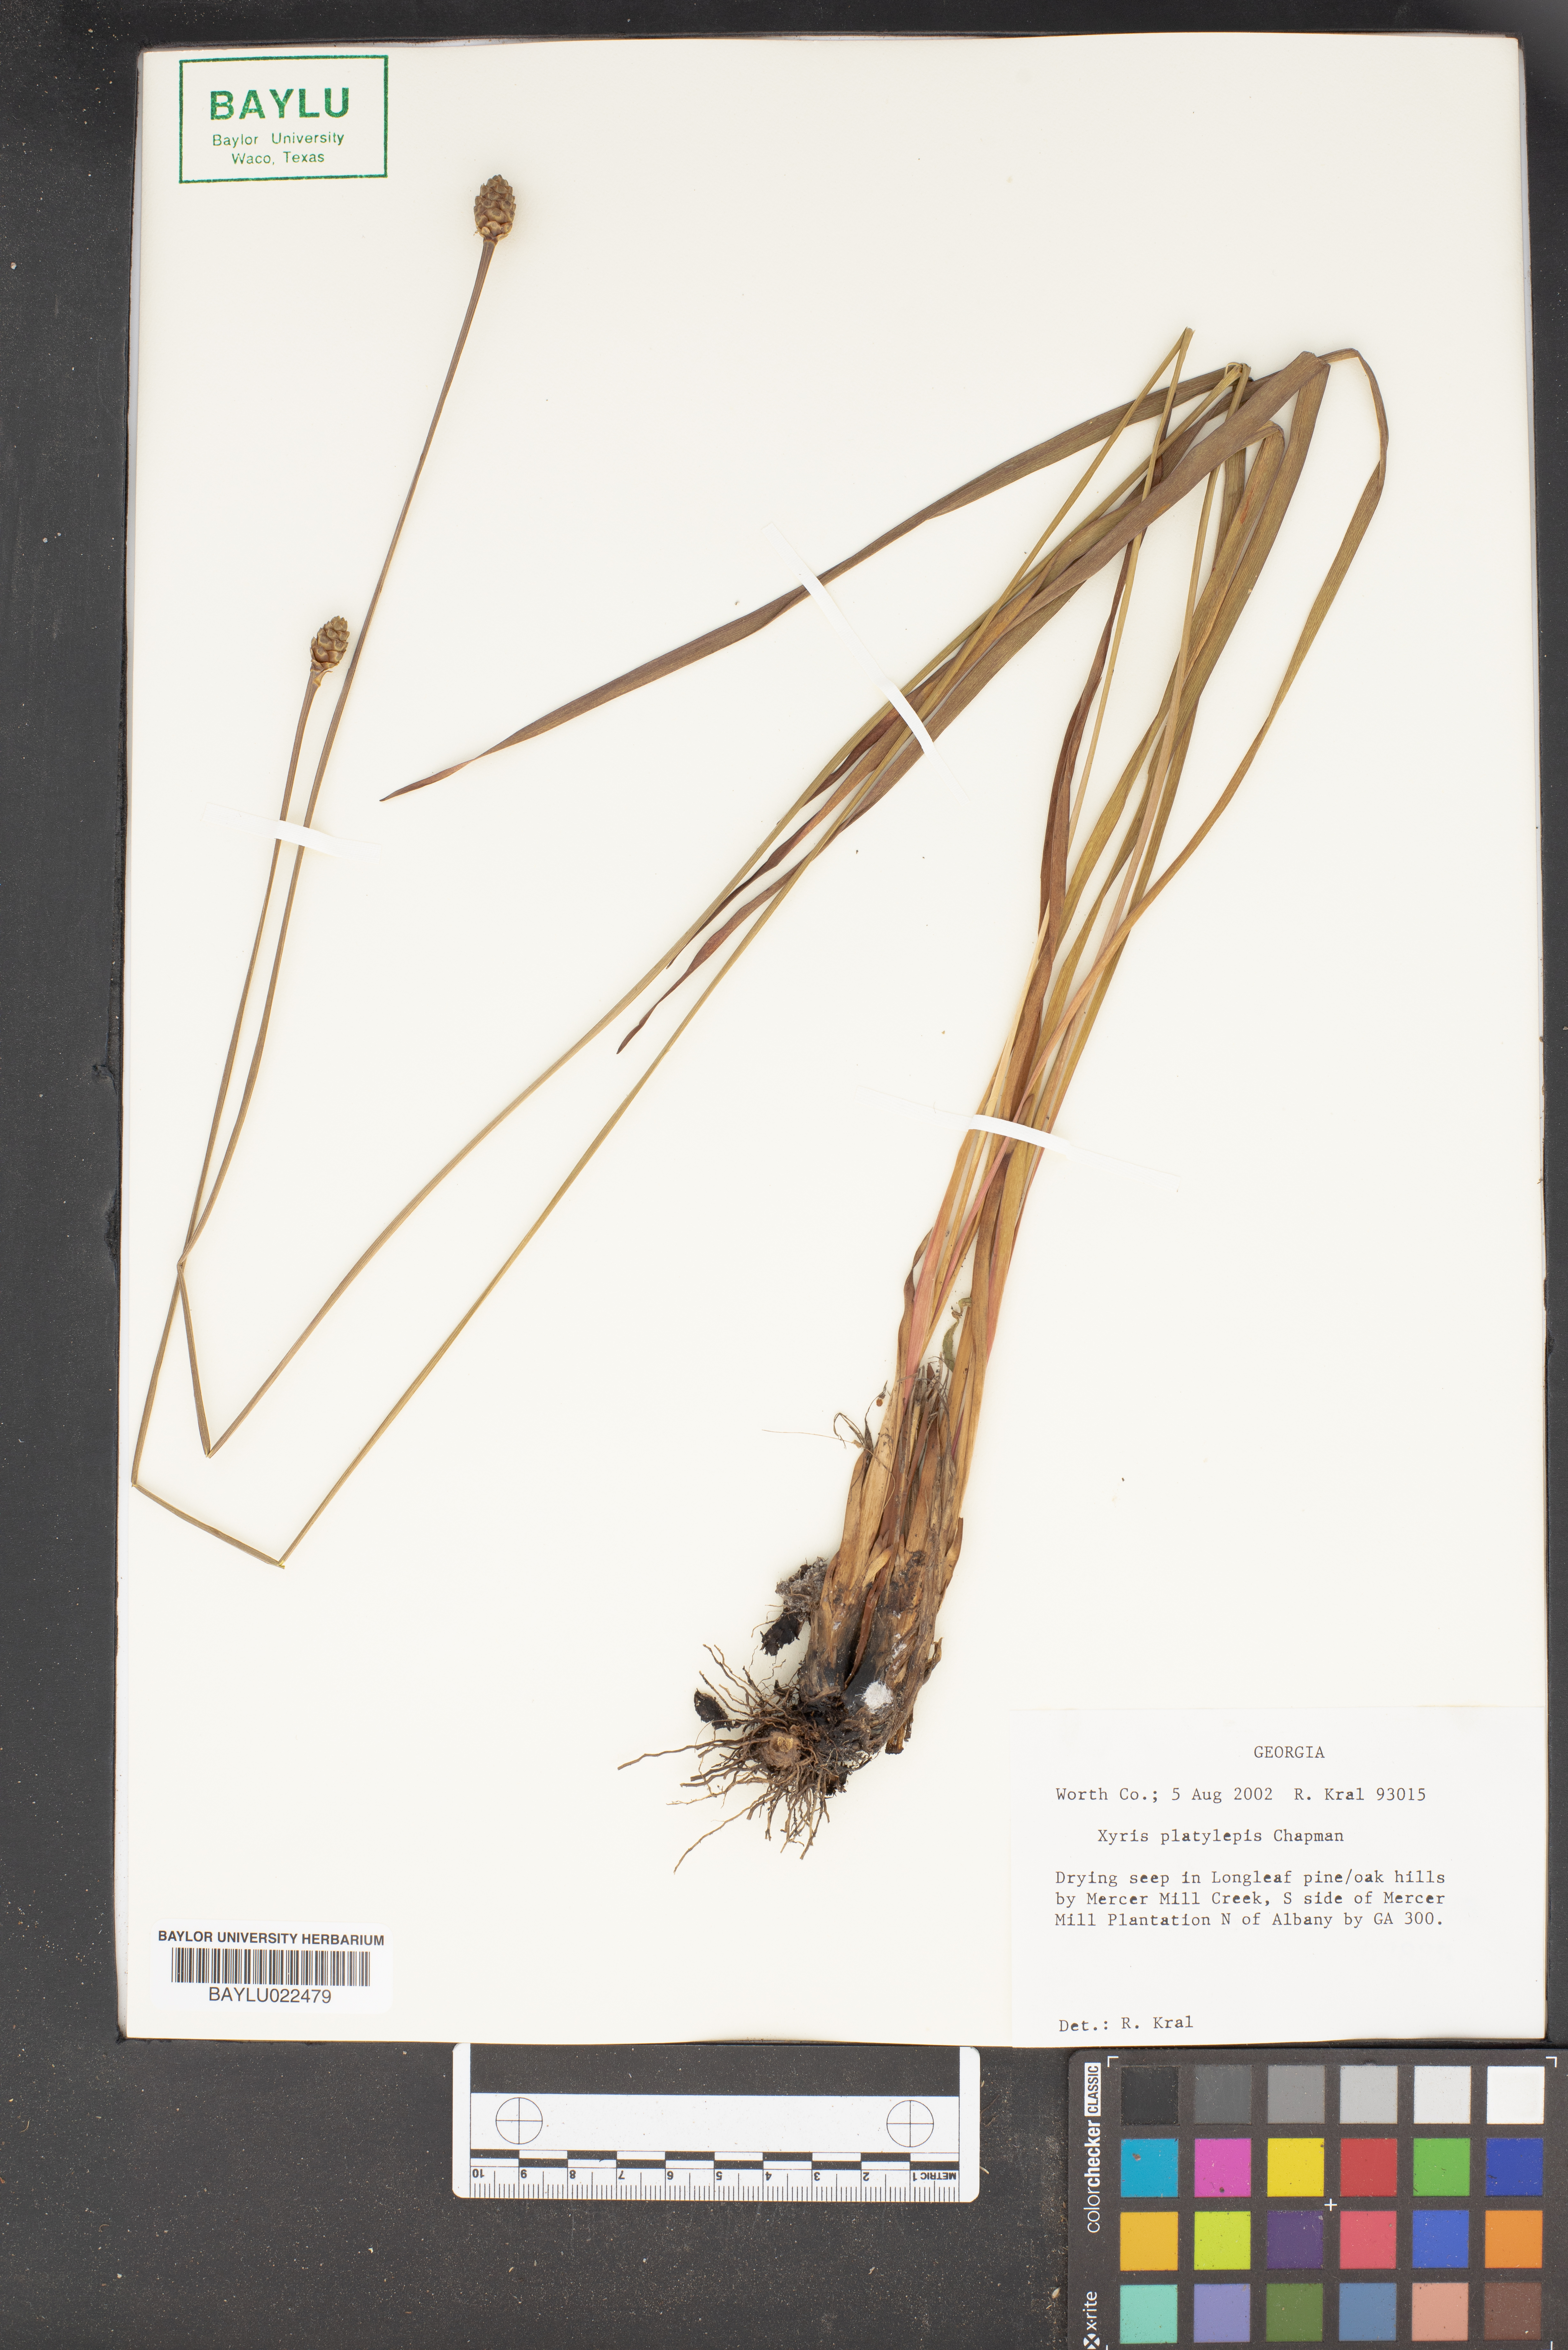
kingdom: Plantae
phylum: Tracheophyta
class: Liliopsida
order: Poales
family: Xyridaceae
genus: Xyris
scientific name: Xyris platylepis
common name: Tall yelloweyed grass
